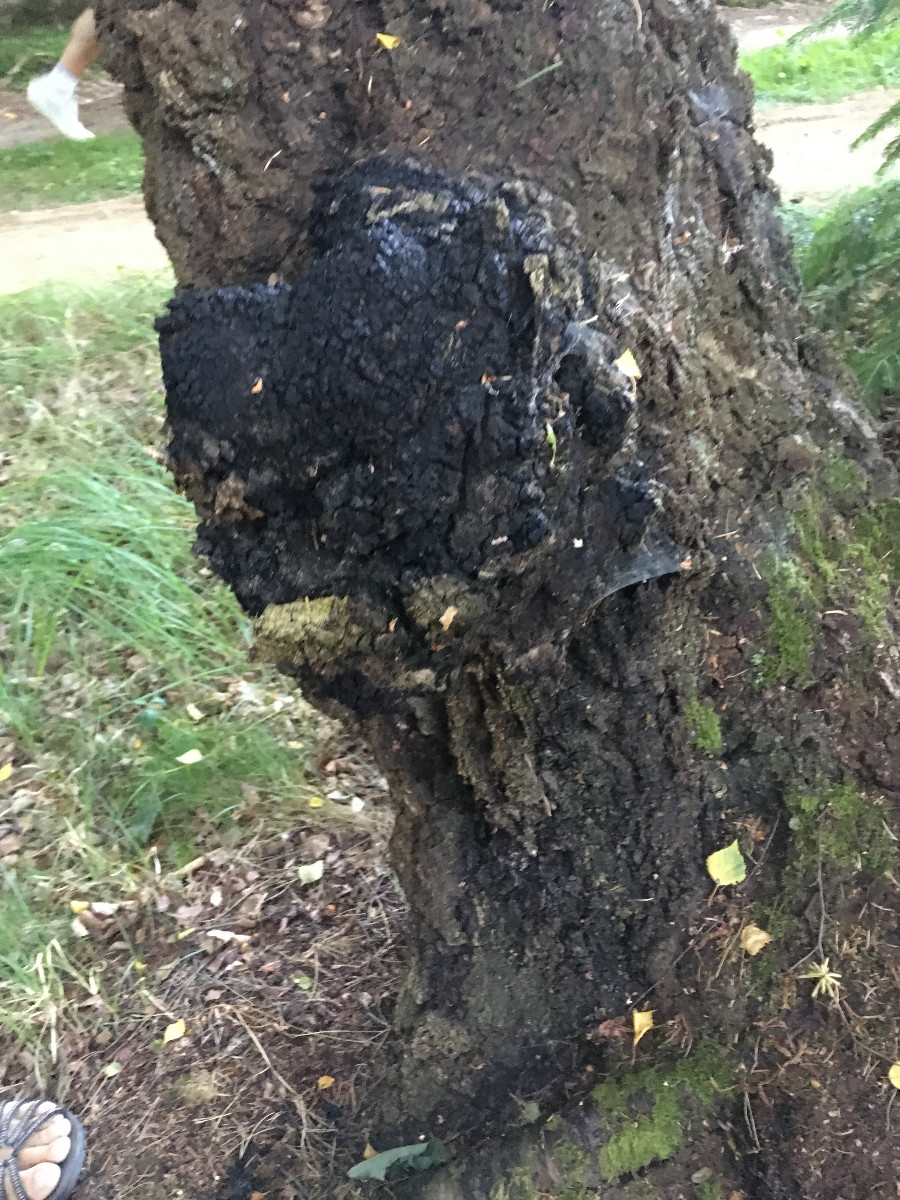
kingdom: Fungi
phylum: Basidiomycota
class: Agaricomycetes
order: Hymenochaetales
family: Hymenochaetaceae
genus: Inonotus
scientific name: Inonotus obliquus
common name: birke-spejlporesvamp
